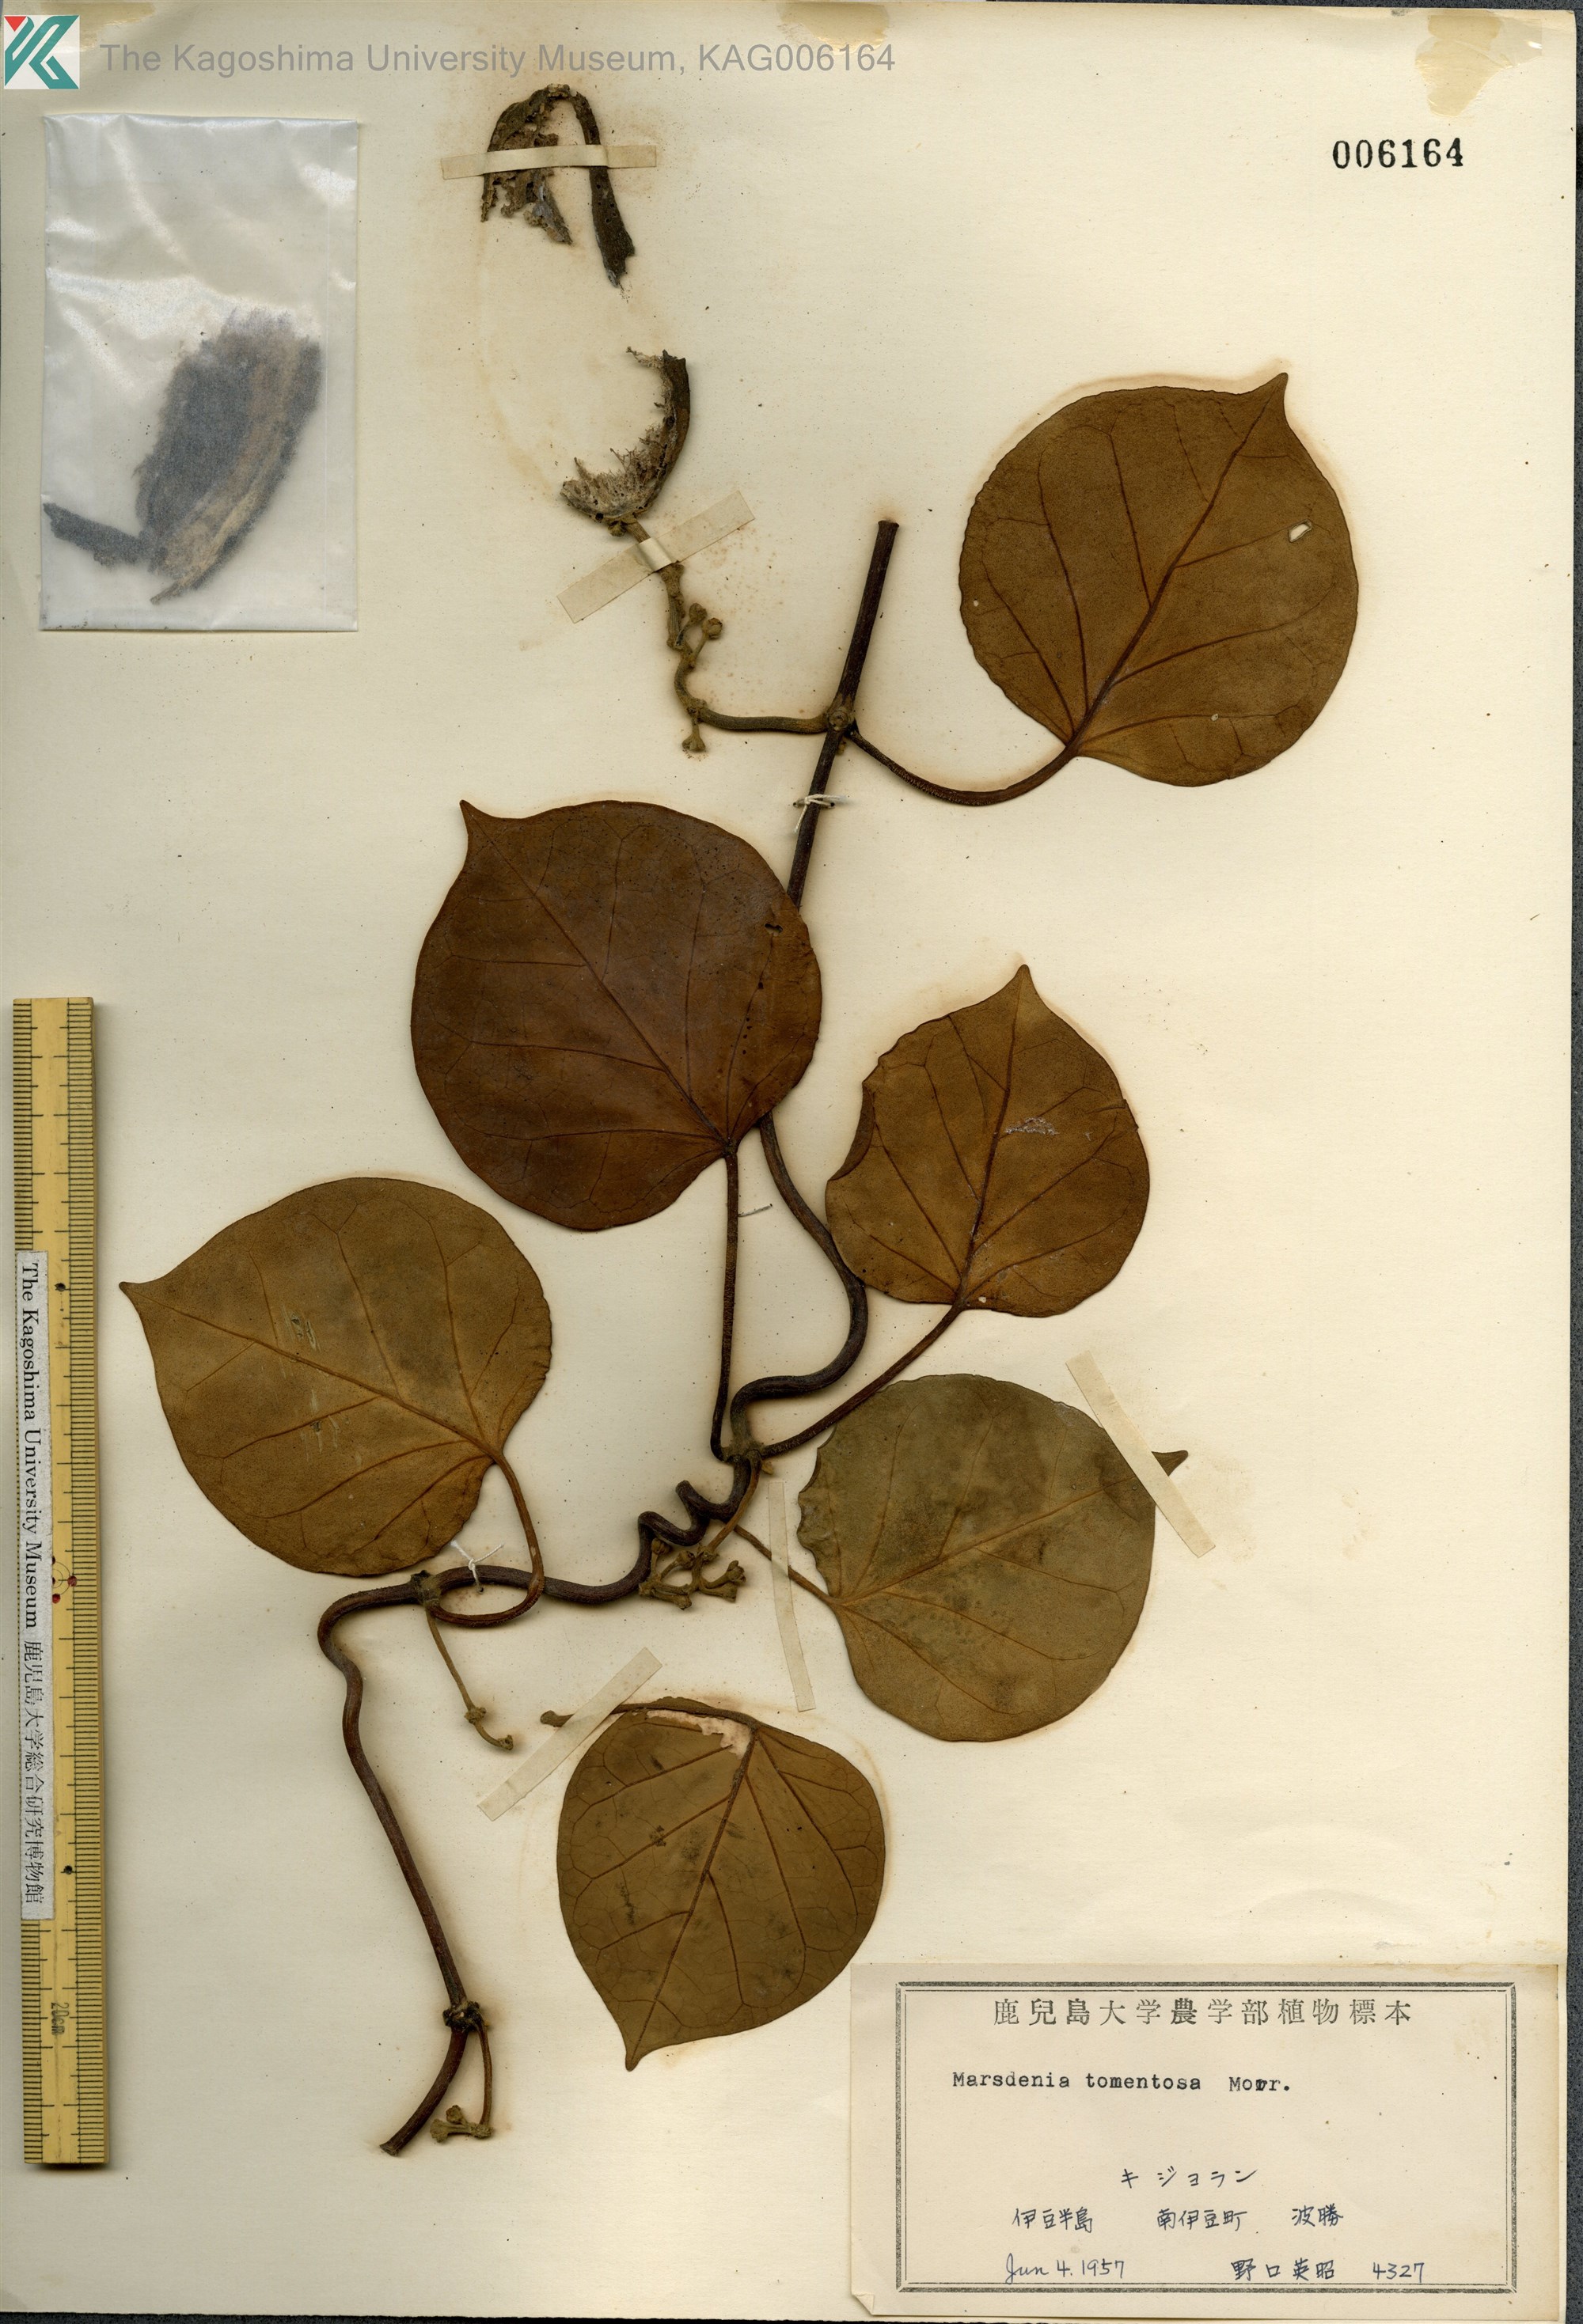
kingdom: Plantae
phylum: Tracheophyta
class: Magnoliopsida
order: Gentianales
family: Apocynaceae
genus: Sinomarsdenia
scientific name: Sinomarsdenia tomentosa
